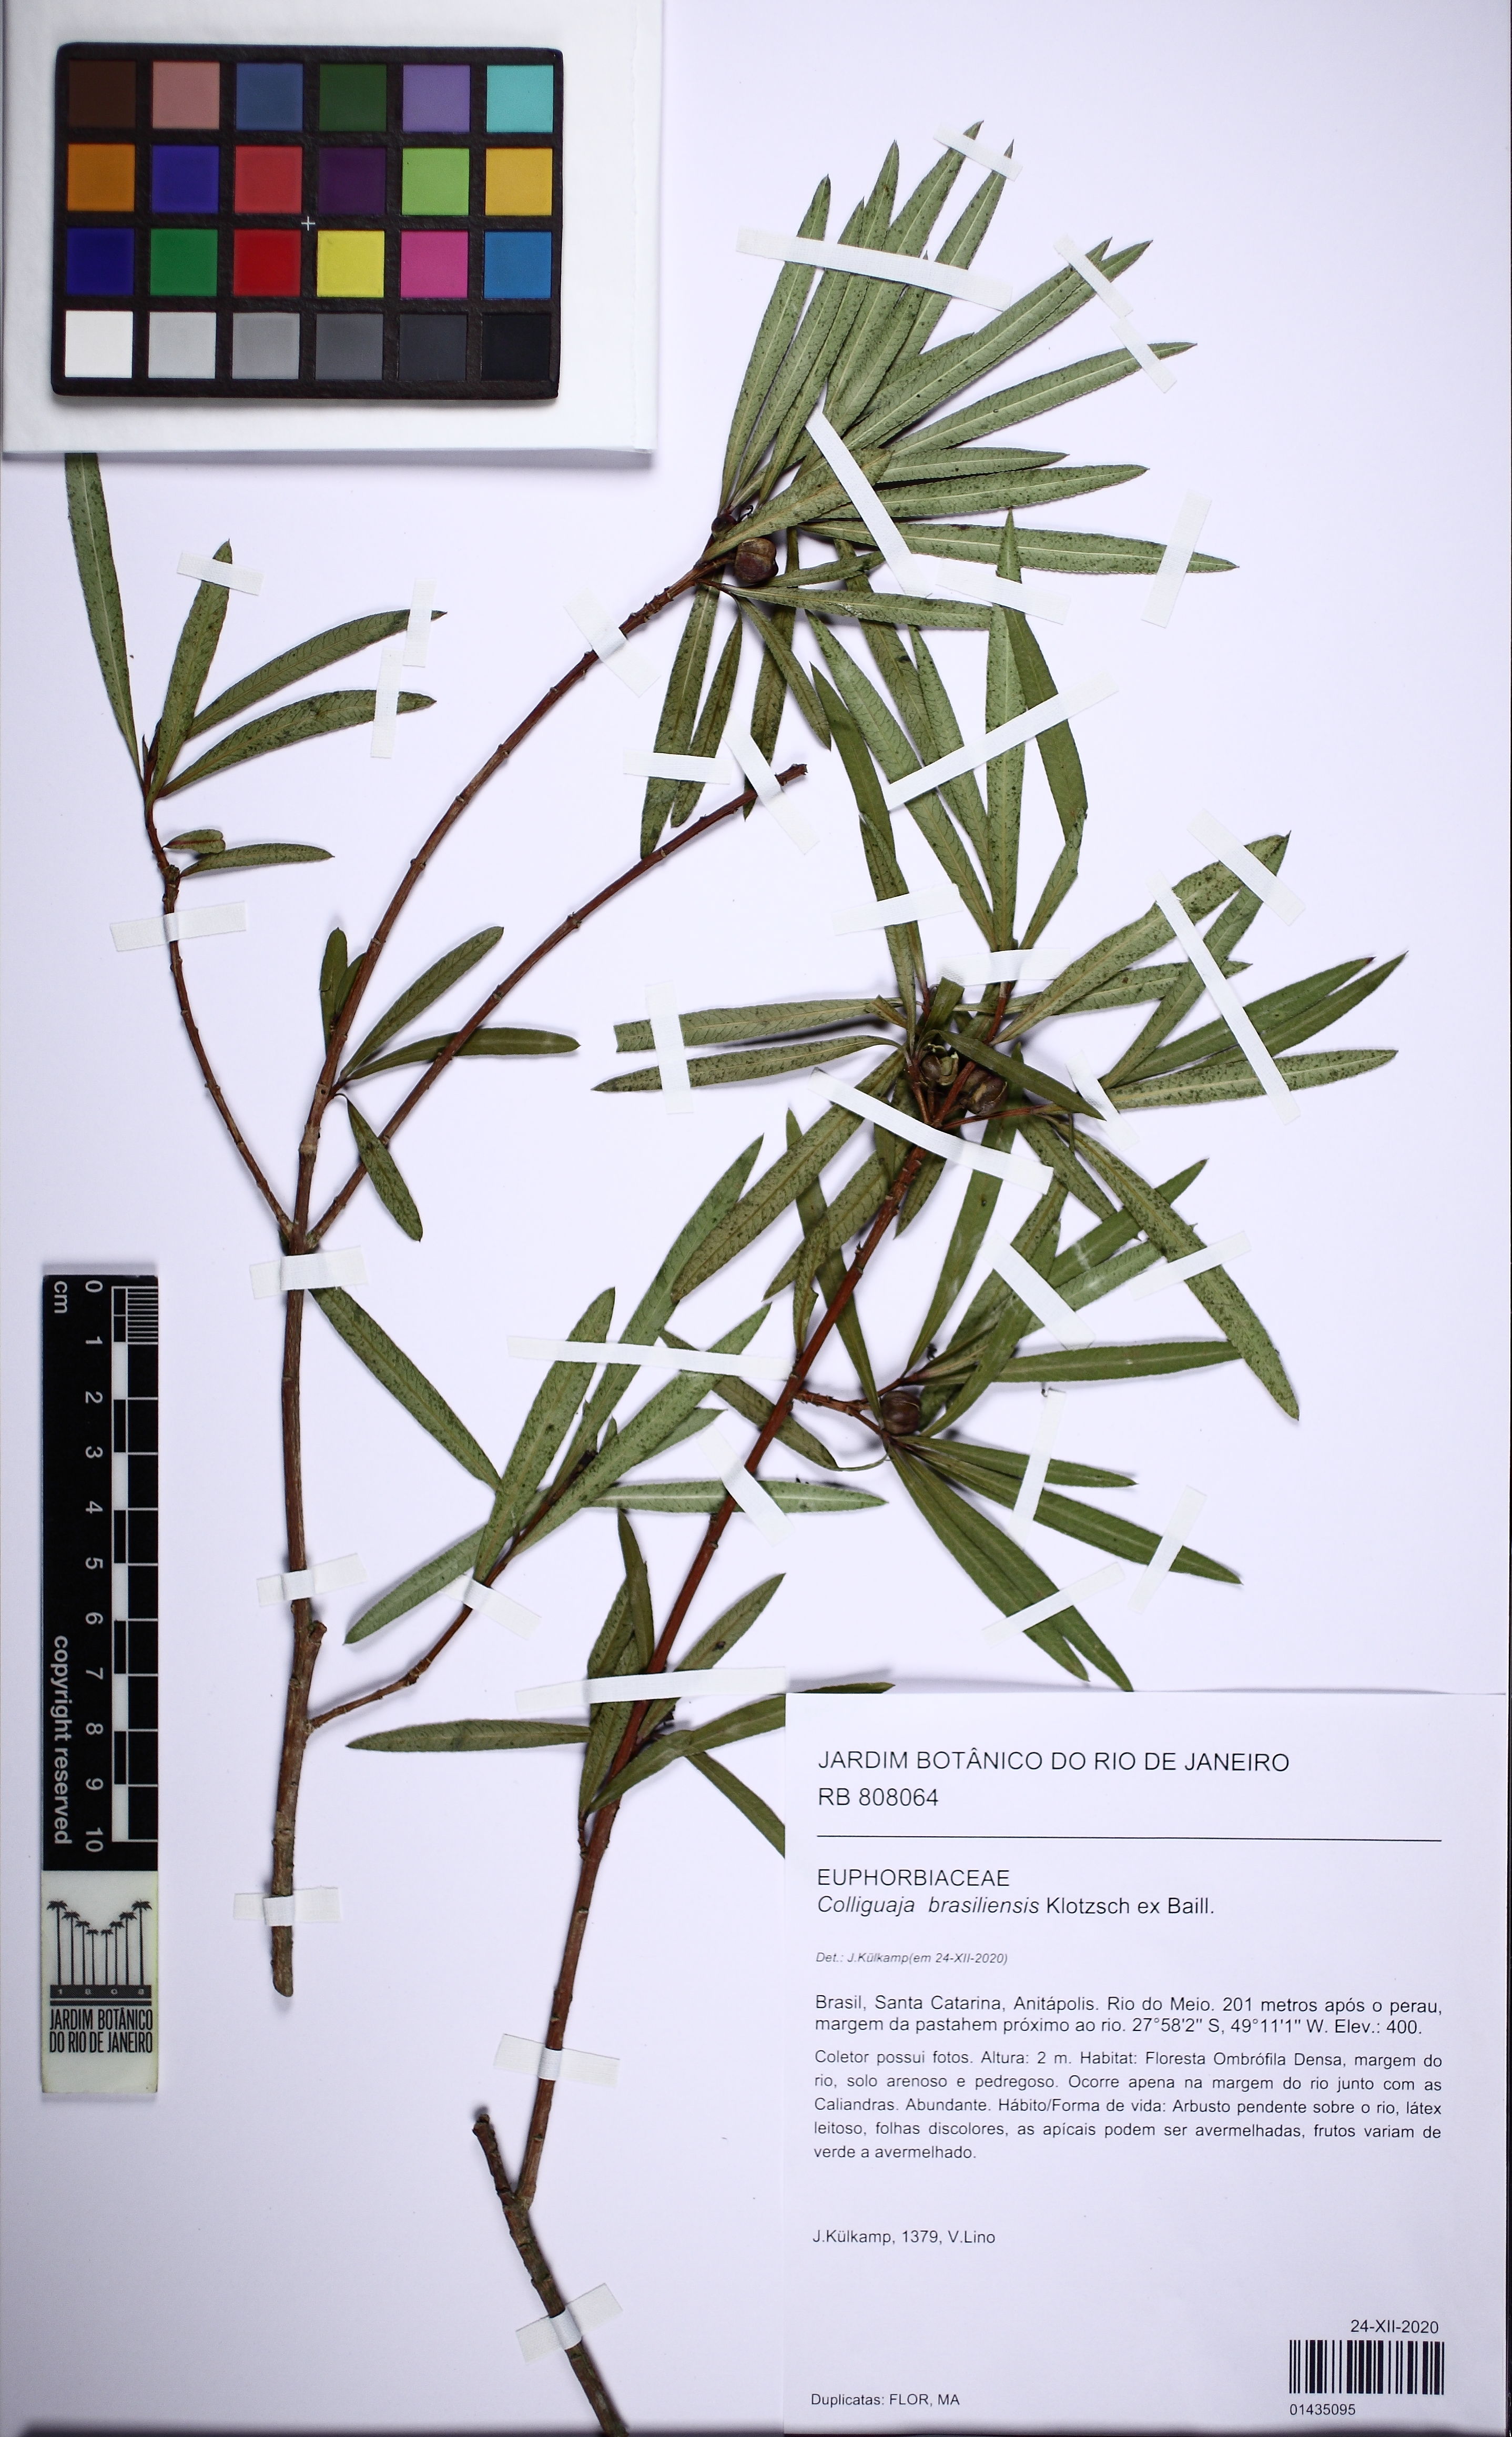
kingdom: Plantae
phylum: Tracheophyta
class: Magnoliopsida
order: Malpighiales
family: Euphorbiaceae
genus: Colliguaja
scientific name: Colliguaja brasiliensis
